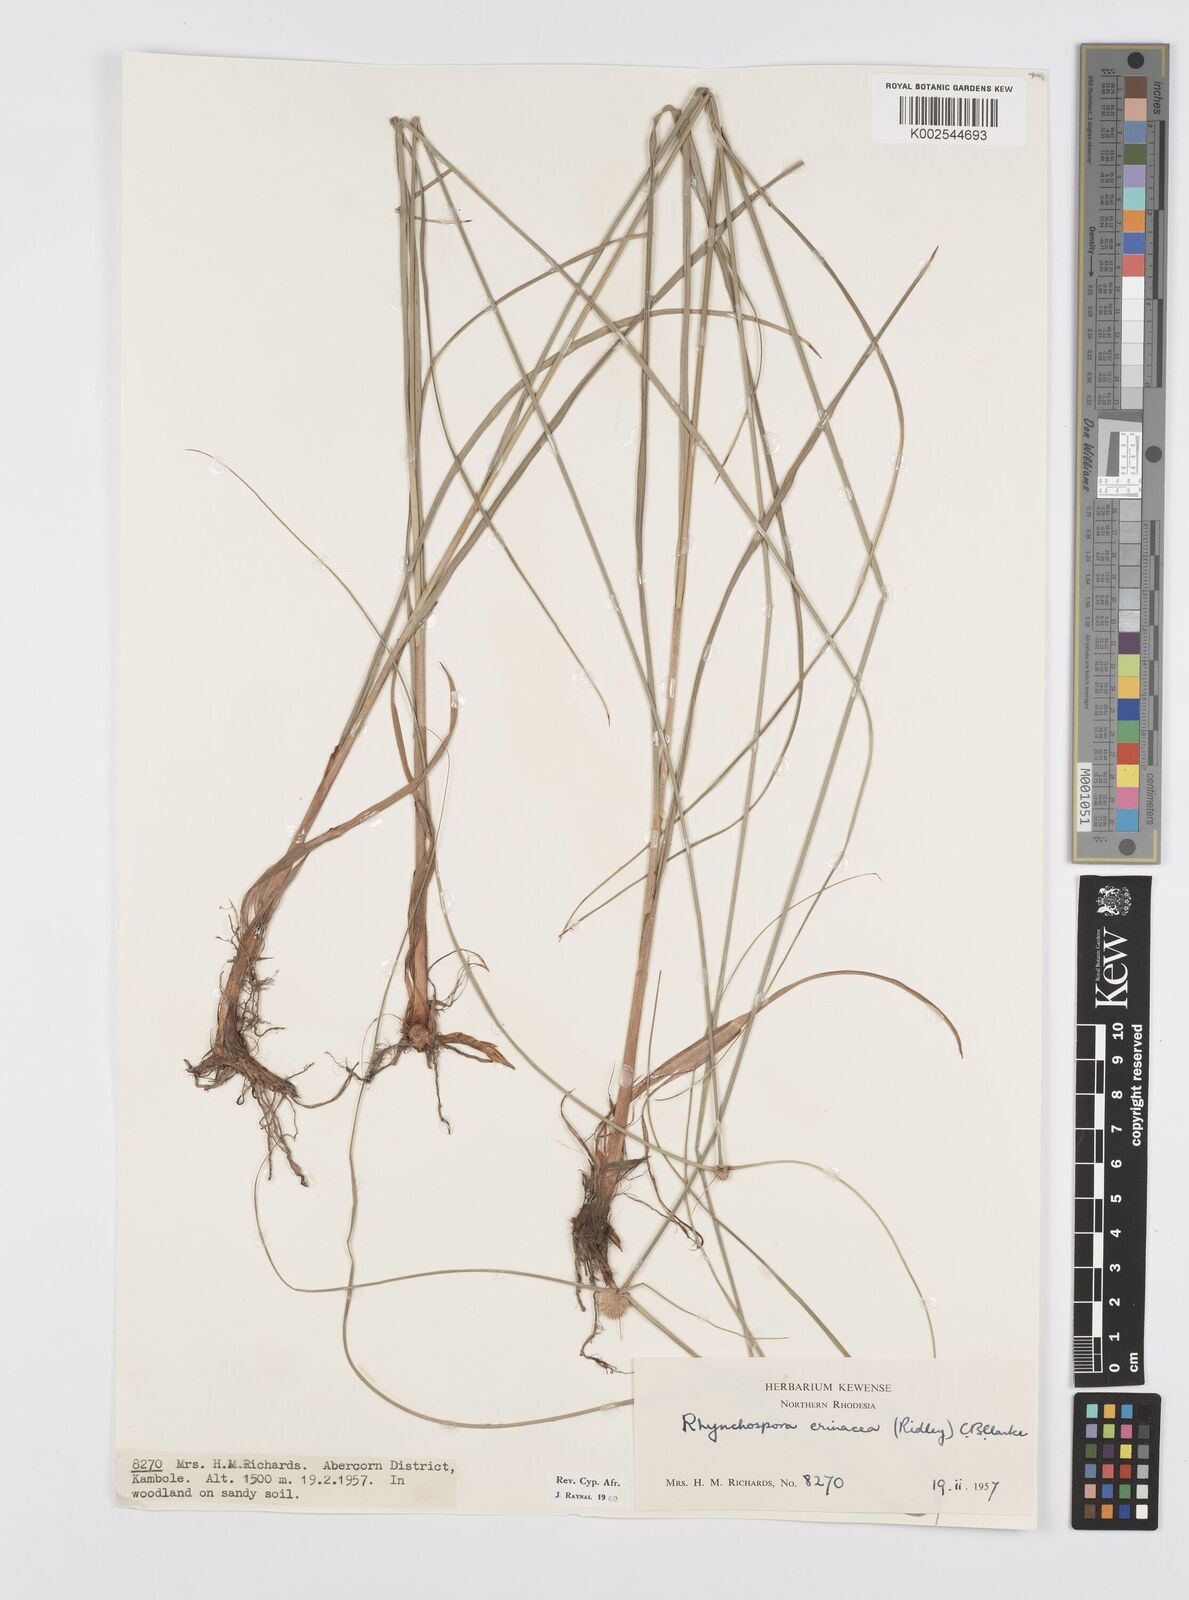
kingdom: Plantae
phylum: Tracheophyta
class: Liliopsida
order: Poales
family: Cyperaceae
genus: Cyperus
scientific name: Cyperus erinaceus
